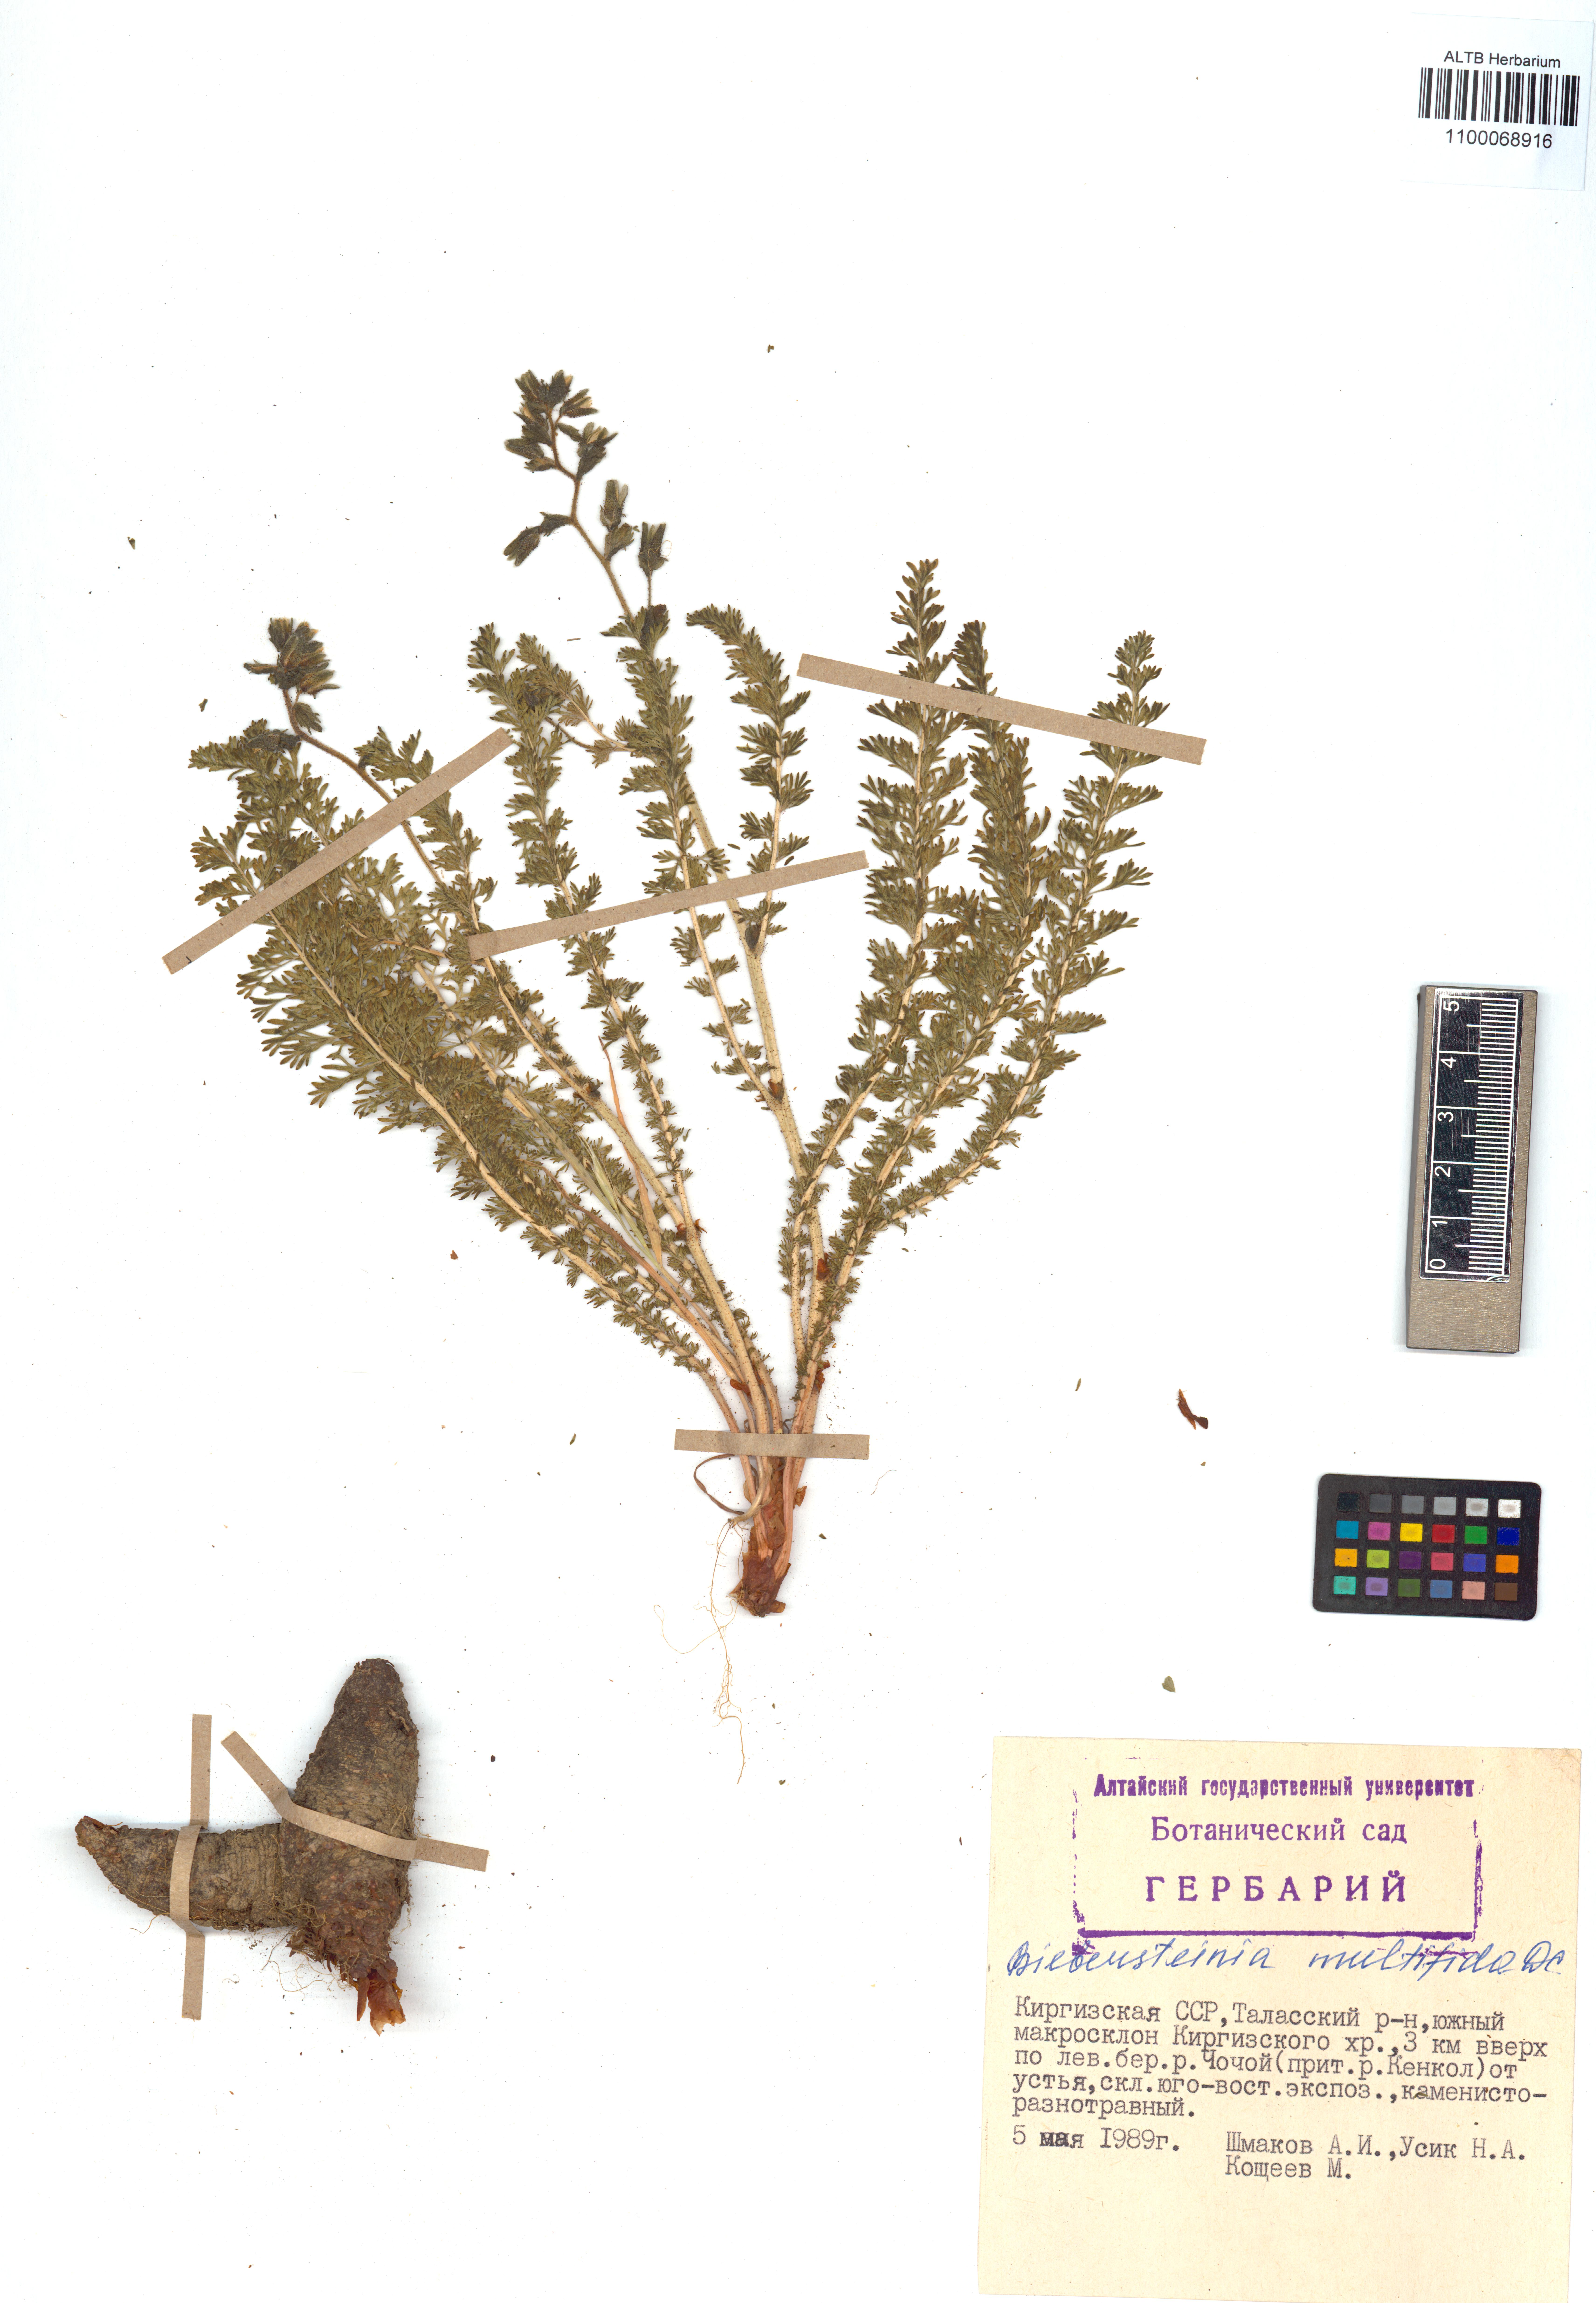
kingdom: Plantae
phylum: Tracheophyta
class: Magnoliopsida
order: Sapindales
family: Biebersteiniaceae
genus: Biebersteinia
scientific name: Biebersteinia multifida
